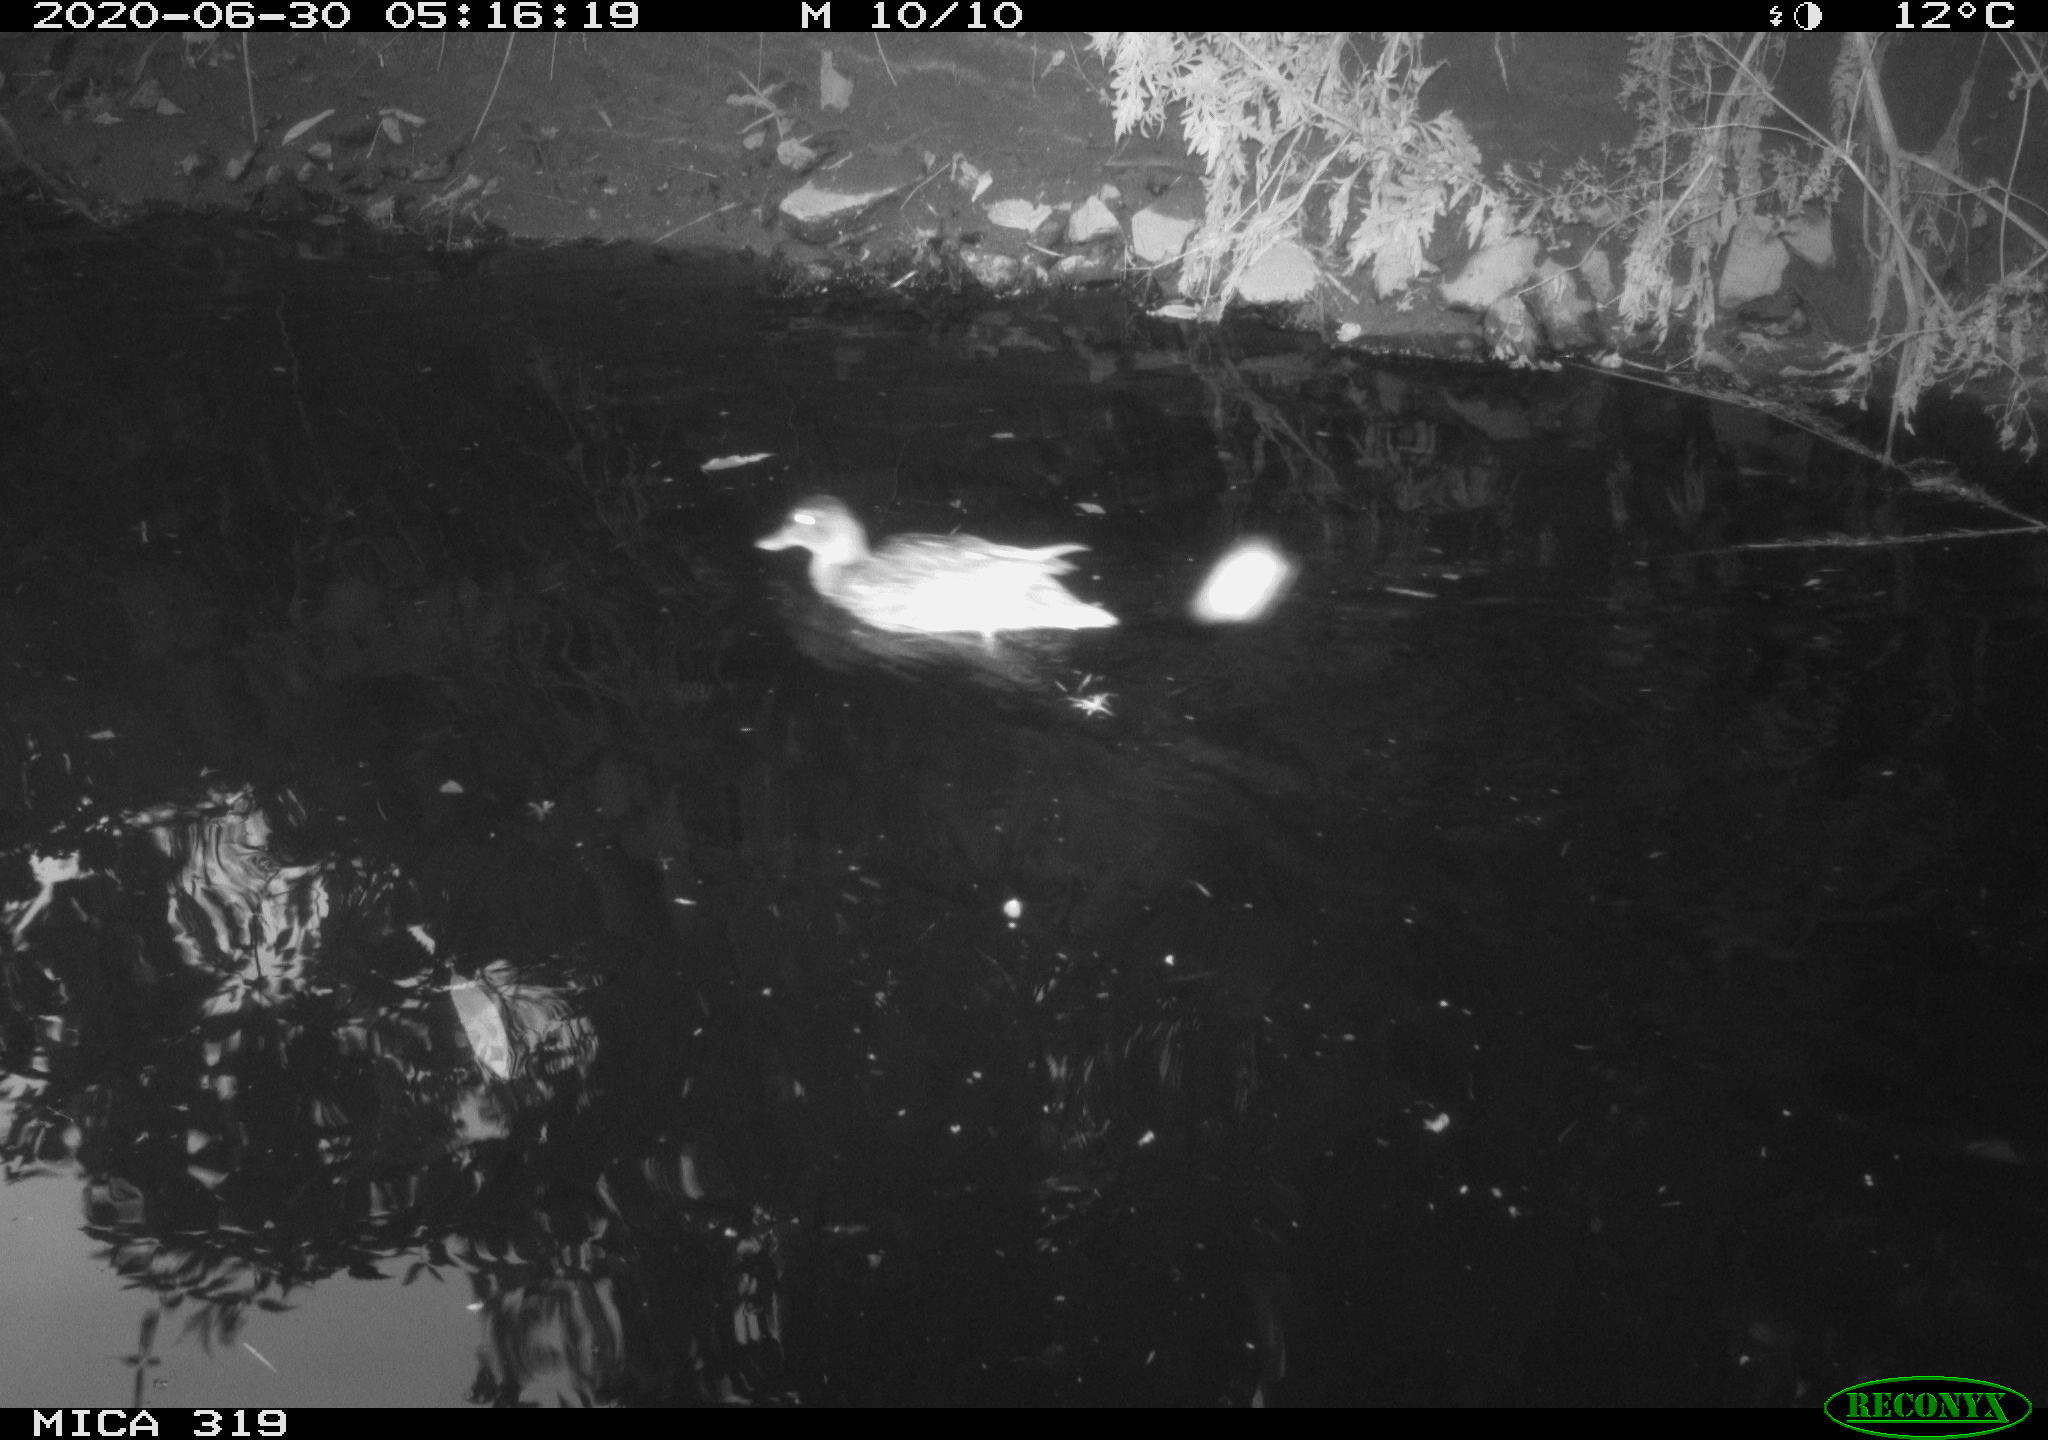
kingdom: Animalia
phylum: Chordata
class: Aves
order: Anseriformes
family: Anatidae
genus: Anas
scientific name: Anas platyrhynchos
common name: Mallard
